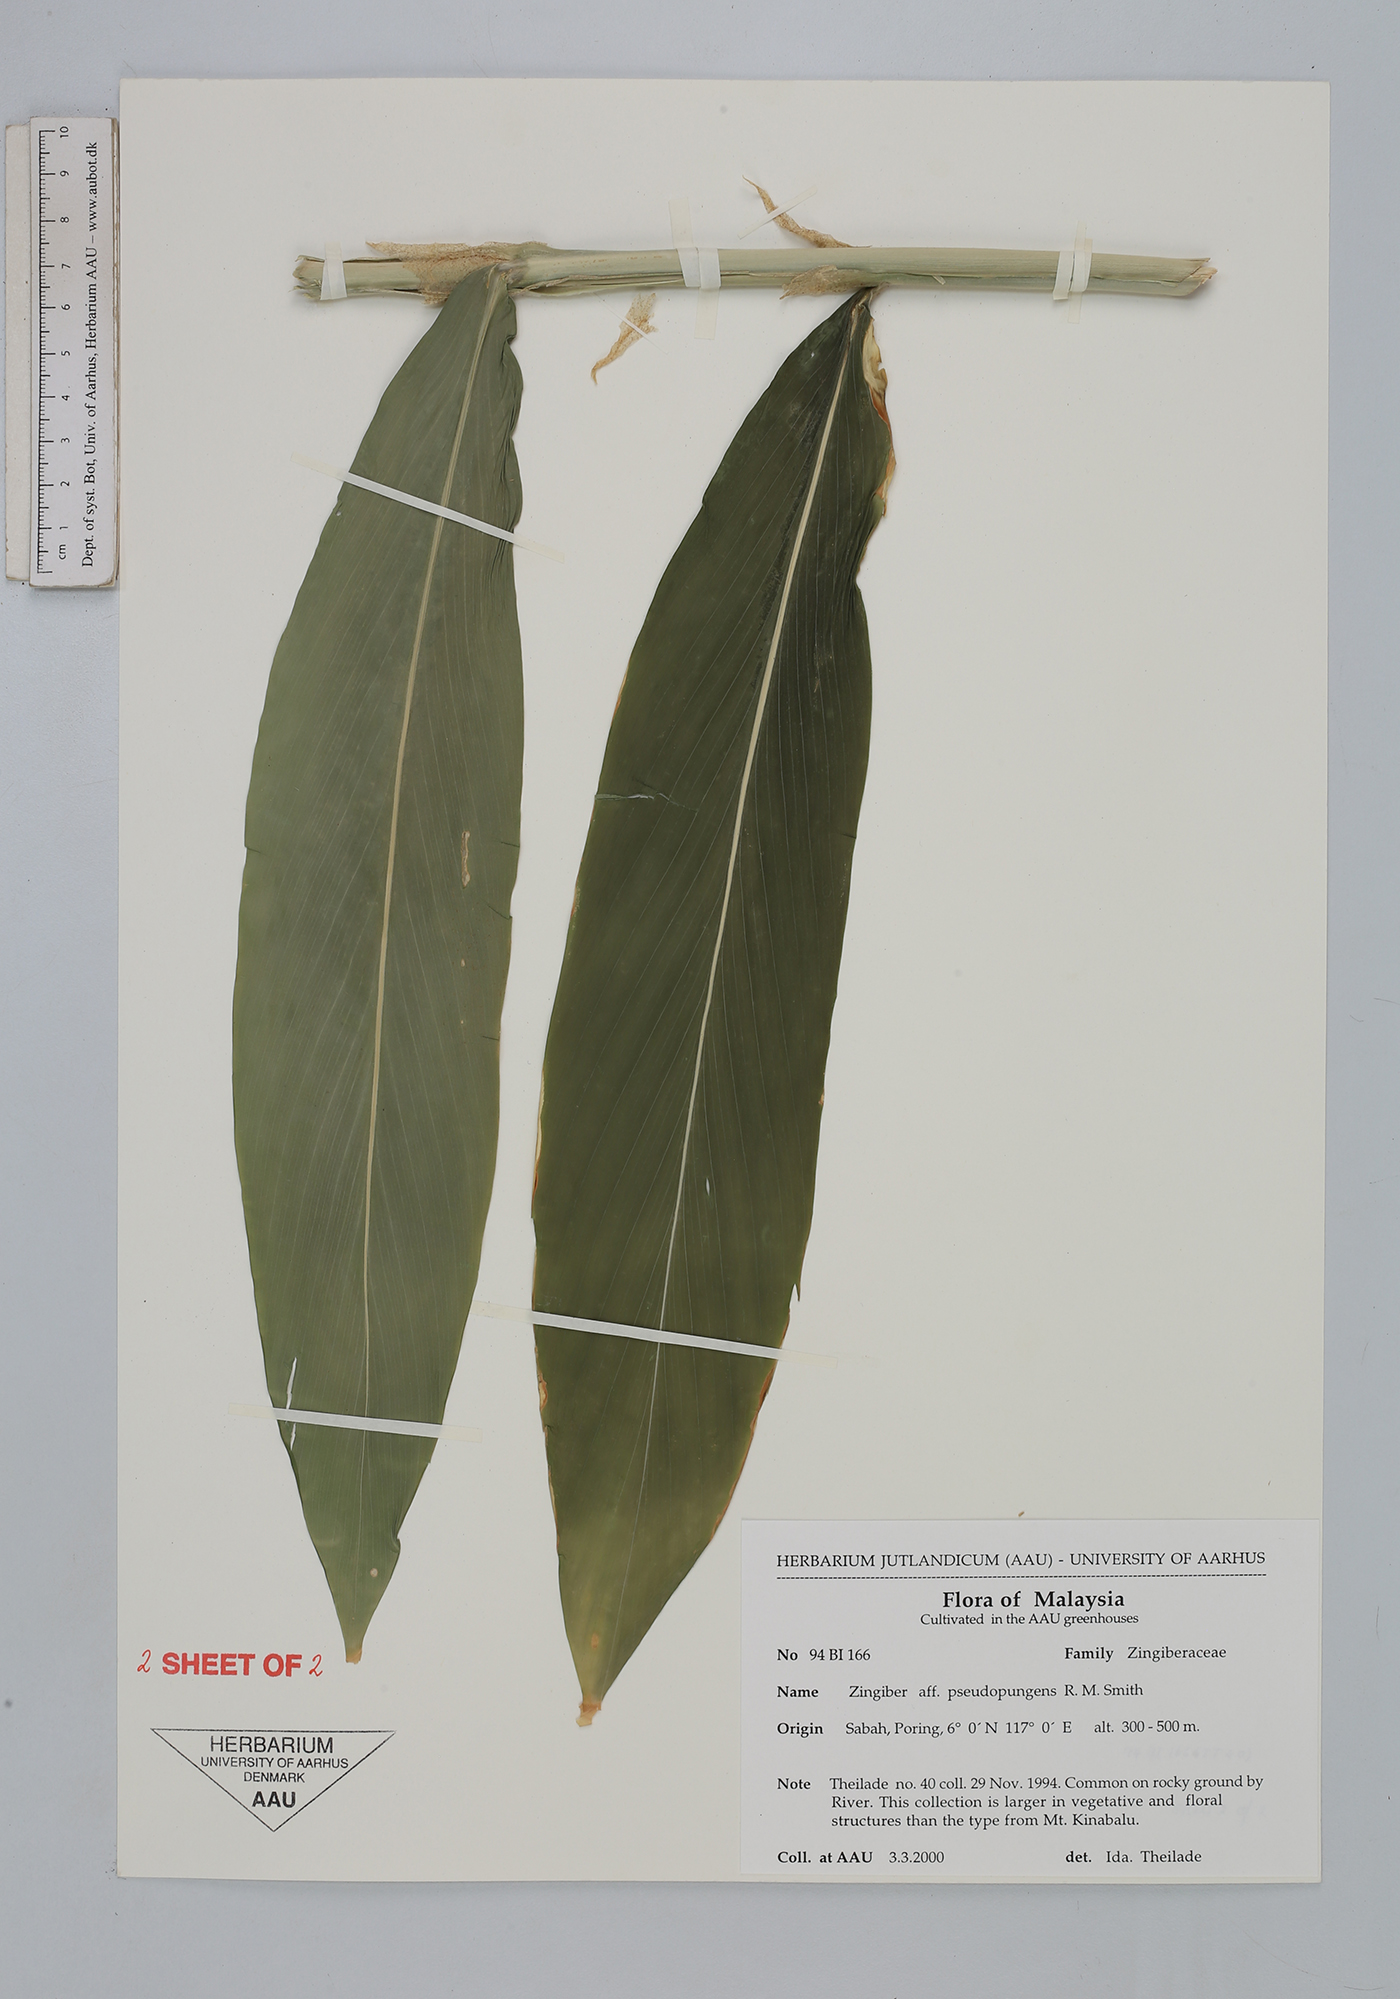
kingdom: Plantae
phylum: Tracheophyta
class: Liliopsida
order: Zingiberales
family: Zingiberaceae
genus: Zingiber
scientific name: Zingiber pseudopungens
